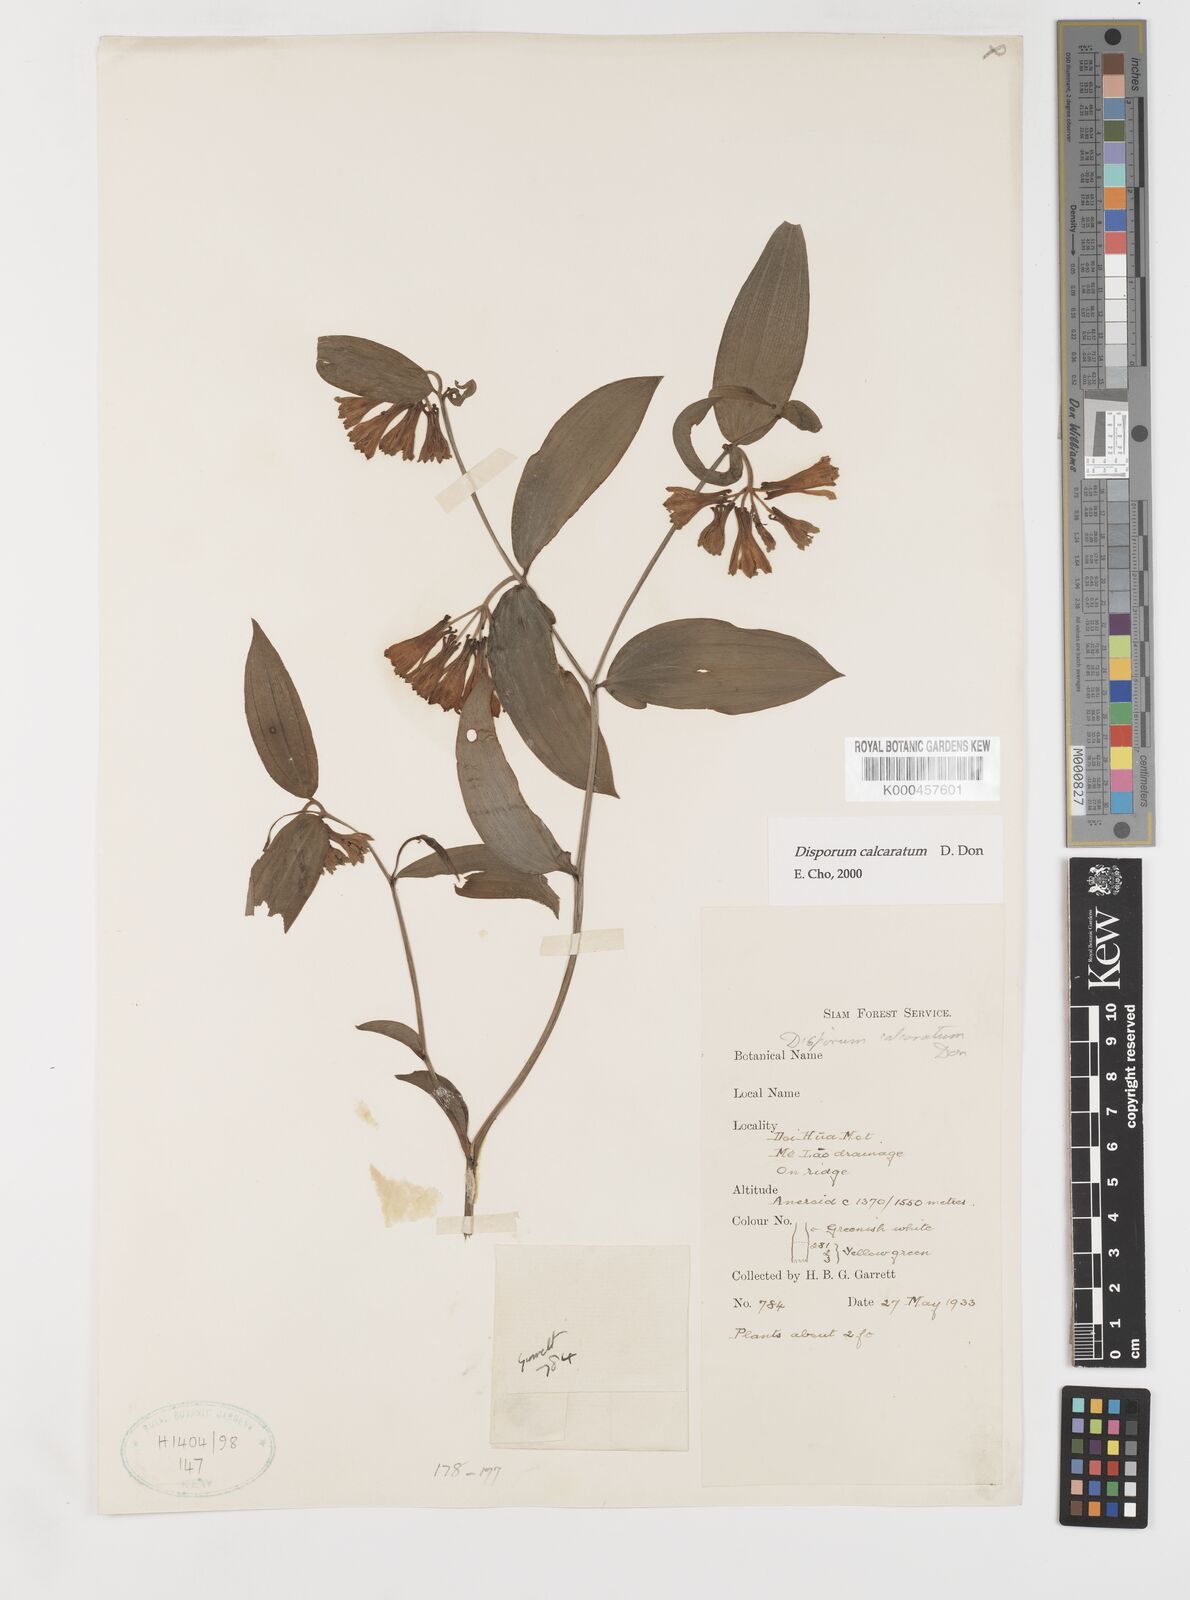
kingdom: Plantae
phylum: Tracheophyta
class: Liliopsida
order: Liliales
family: Colchicaceae
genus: Disporum
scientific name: Disporum calcaratum
